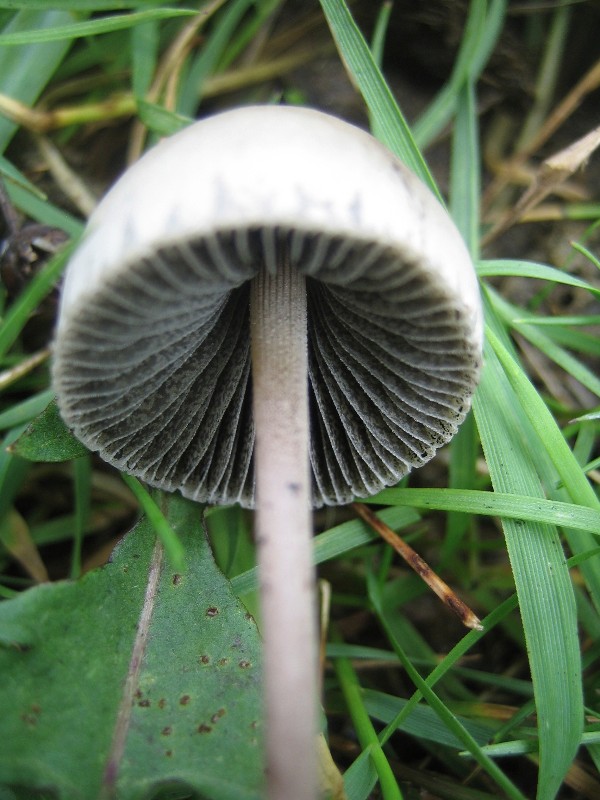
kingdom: Fungi
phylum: Basidiomycota
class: Agaricomycetes
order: Agaricales
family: Bolbitiaceae
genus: Panaeolus
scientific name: Panaeolus papilionaceus
